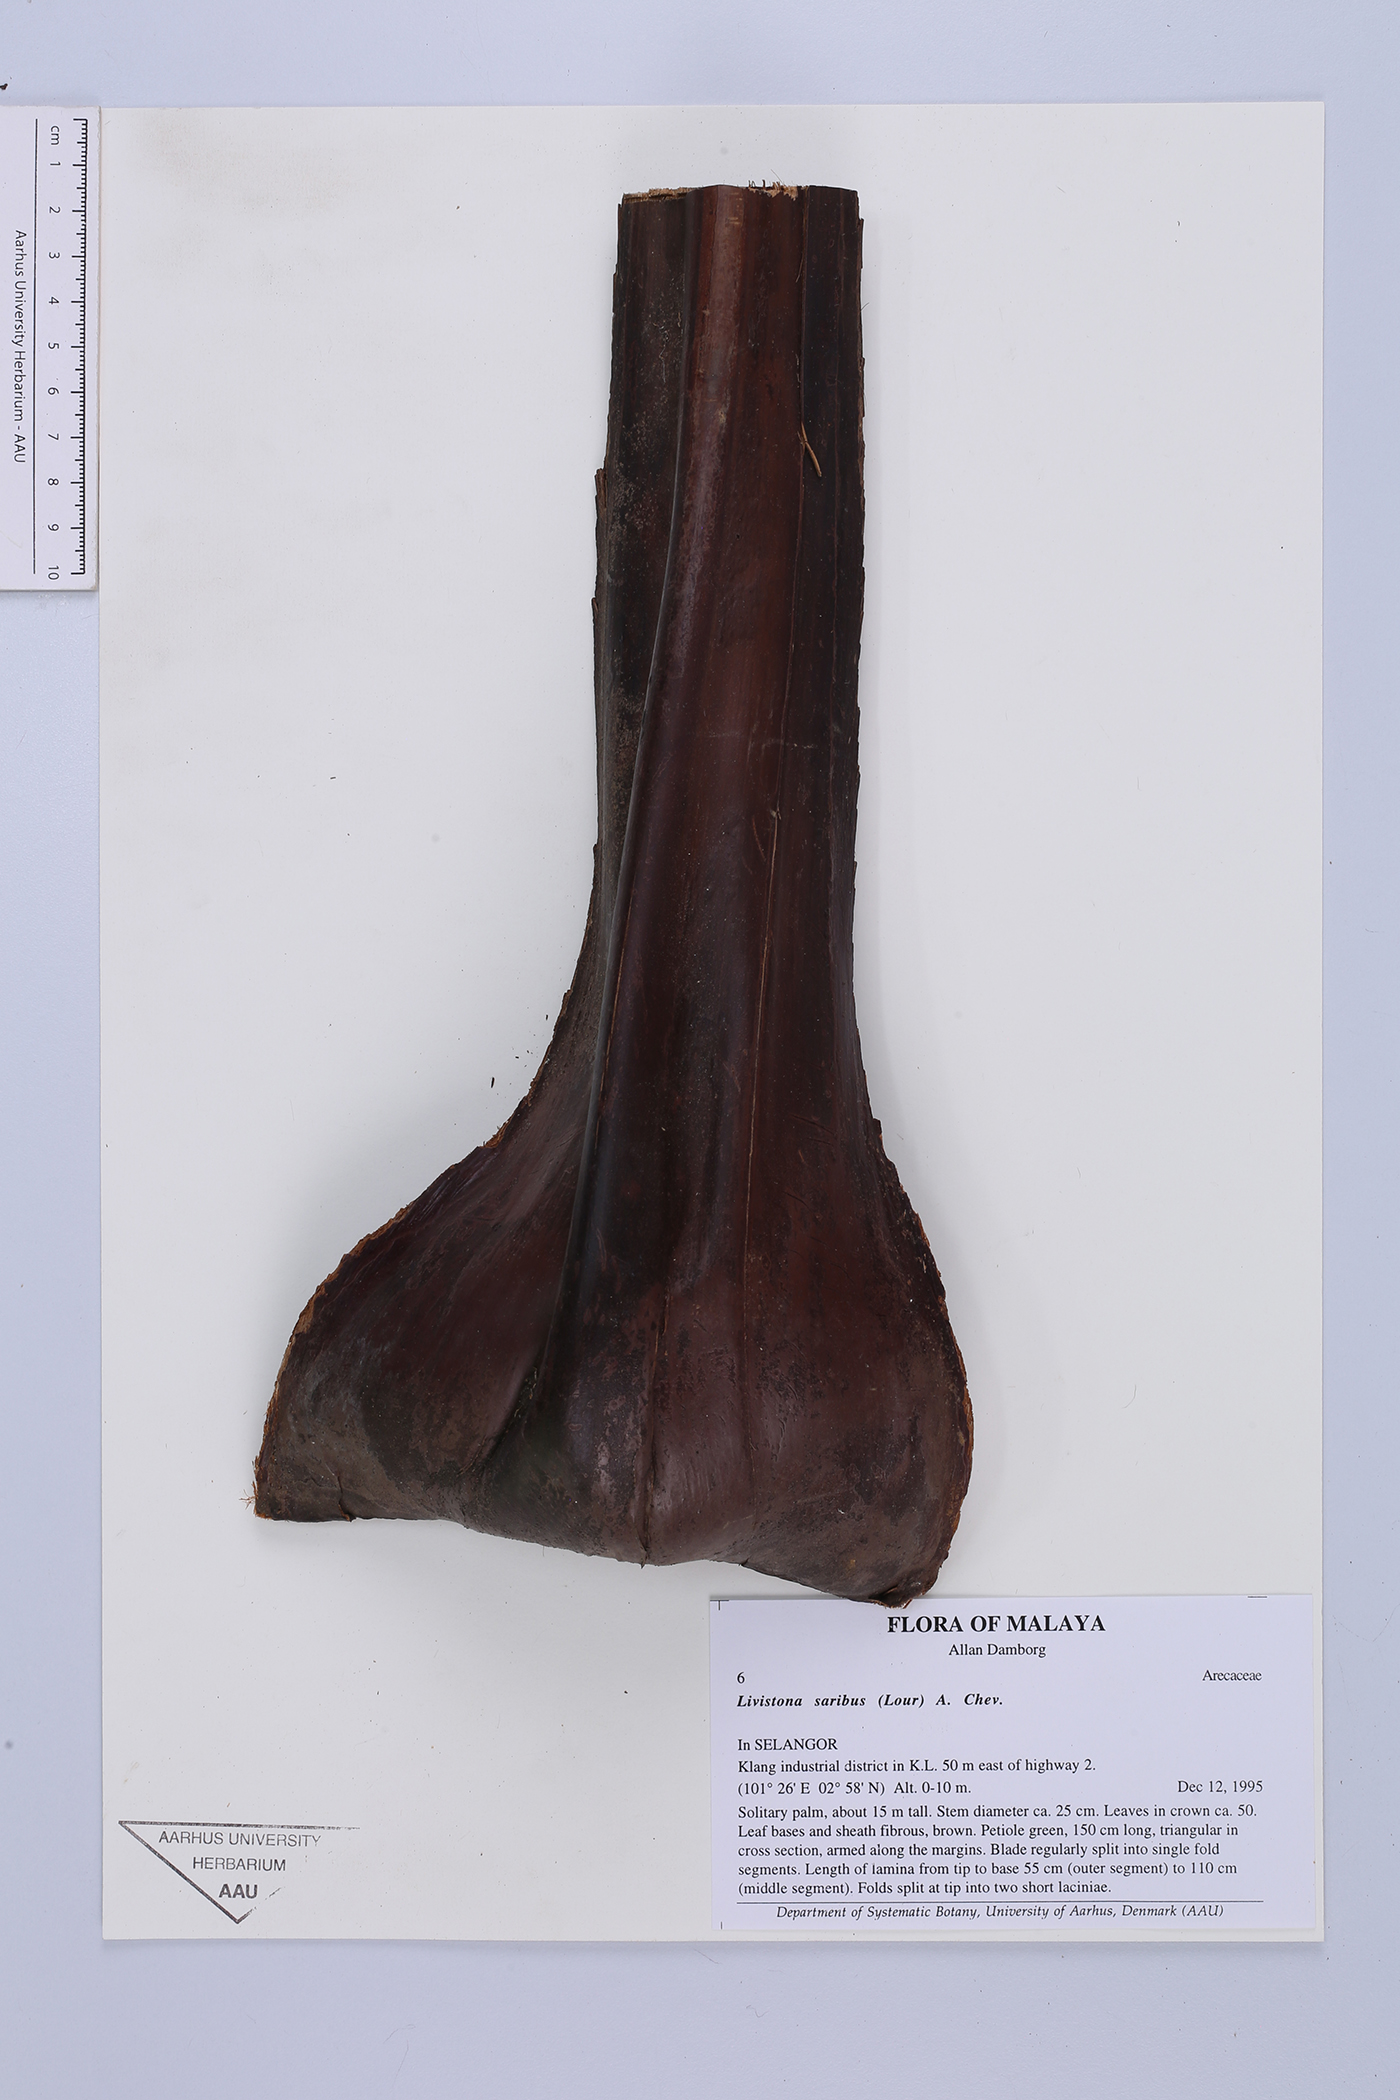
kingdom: Plantae
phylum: Tracheophyta
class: Liliopsida
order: Arecales
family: Arecaceae
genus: Livistona
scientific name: Livistona saribus
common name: Taraw palm
